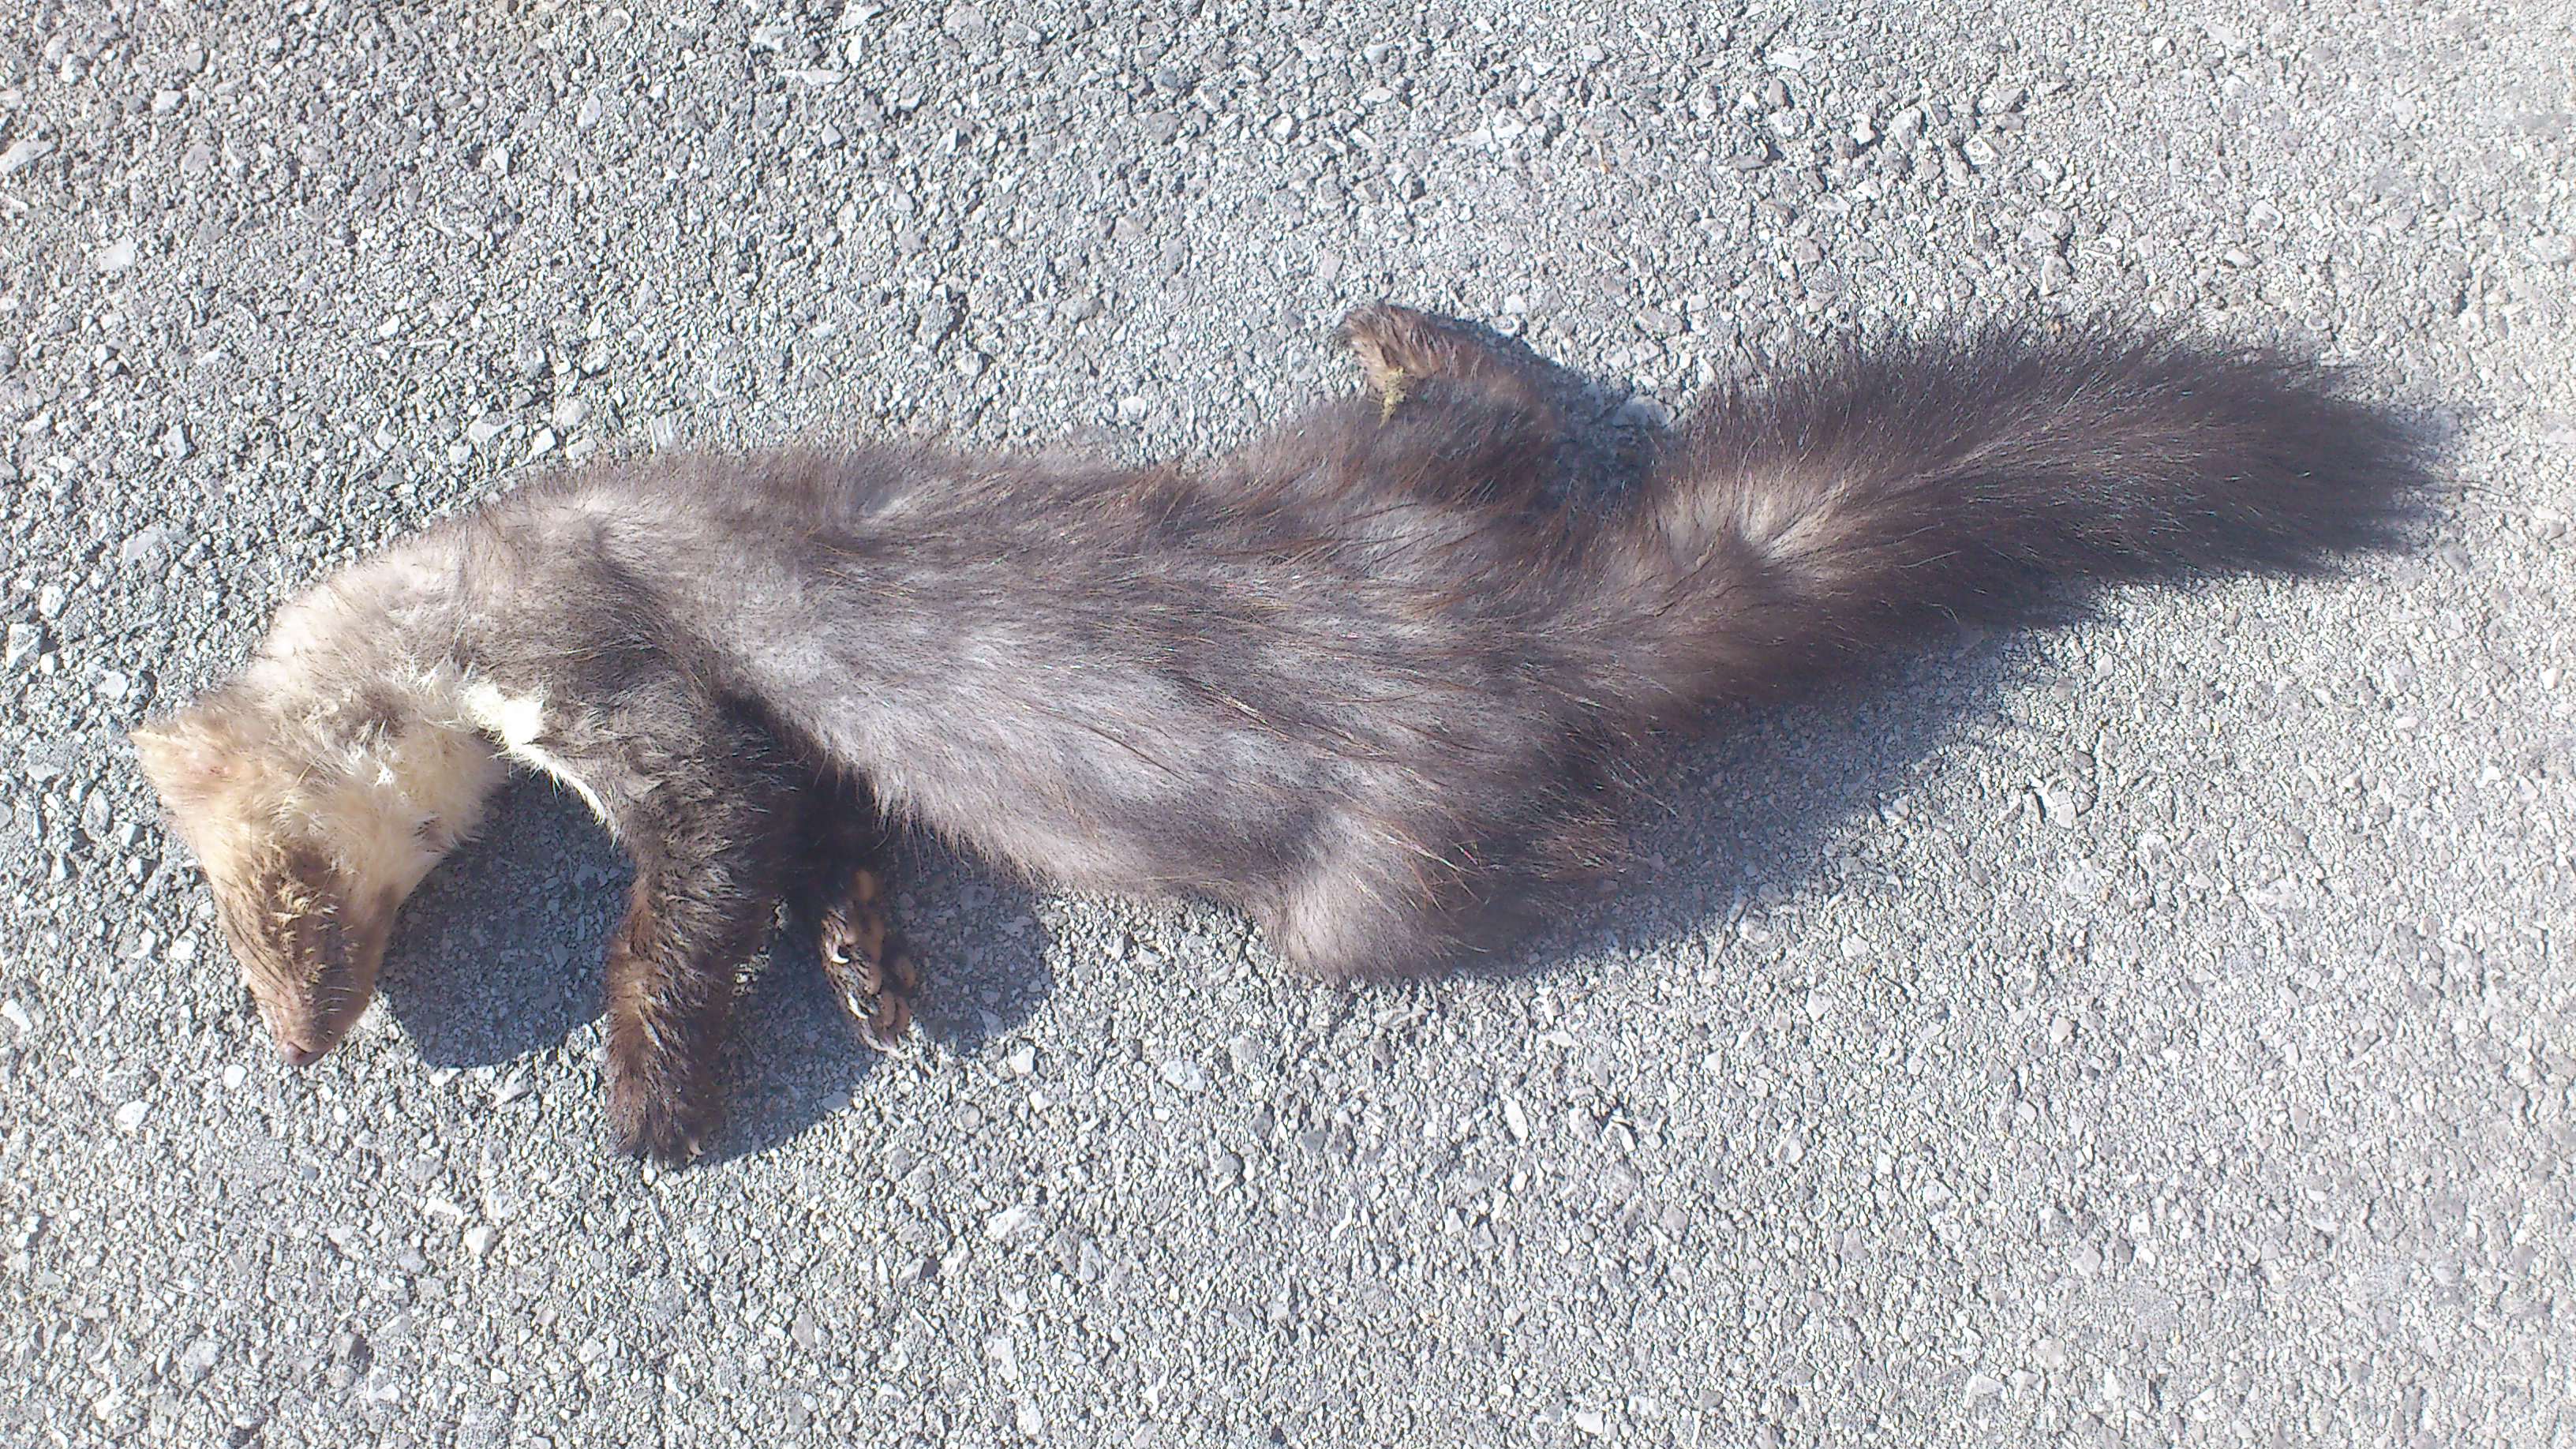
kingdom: Animalia
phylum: Chordata
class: Mammalia
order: Carnivora
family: Mustelidae
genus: Martes
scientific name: Martes foina
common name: Beech marten
